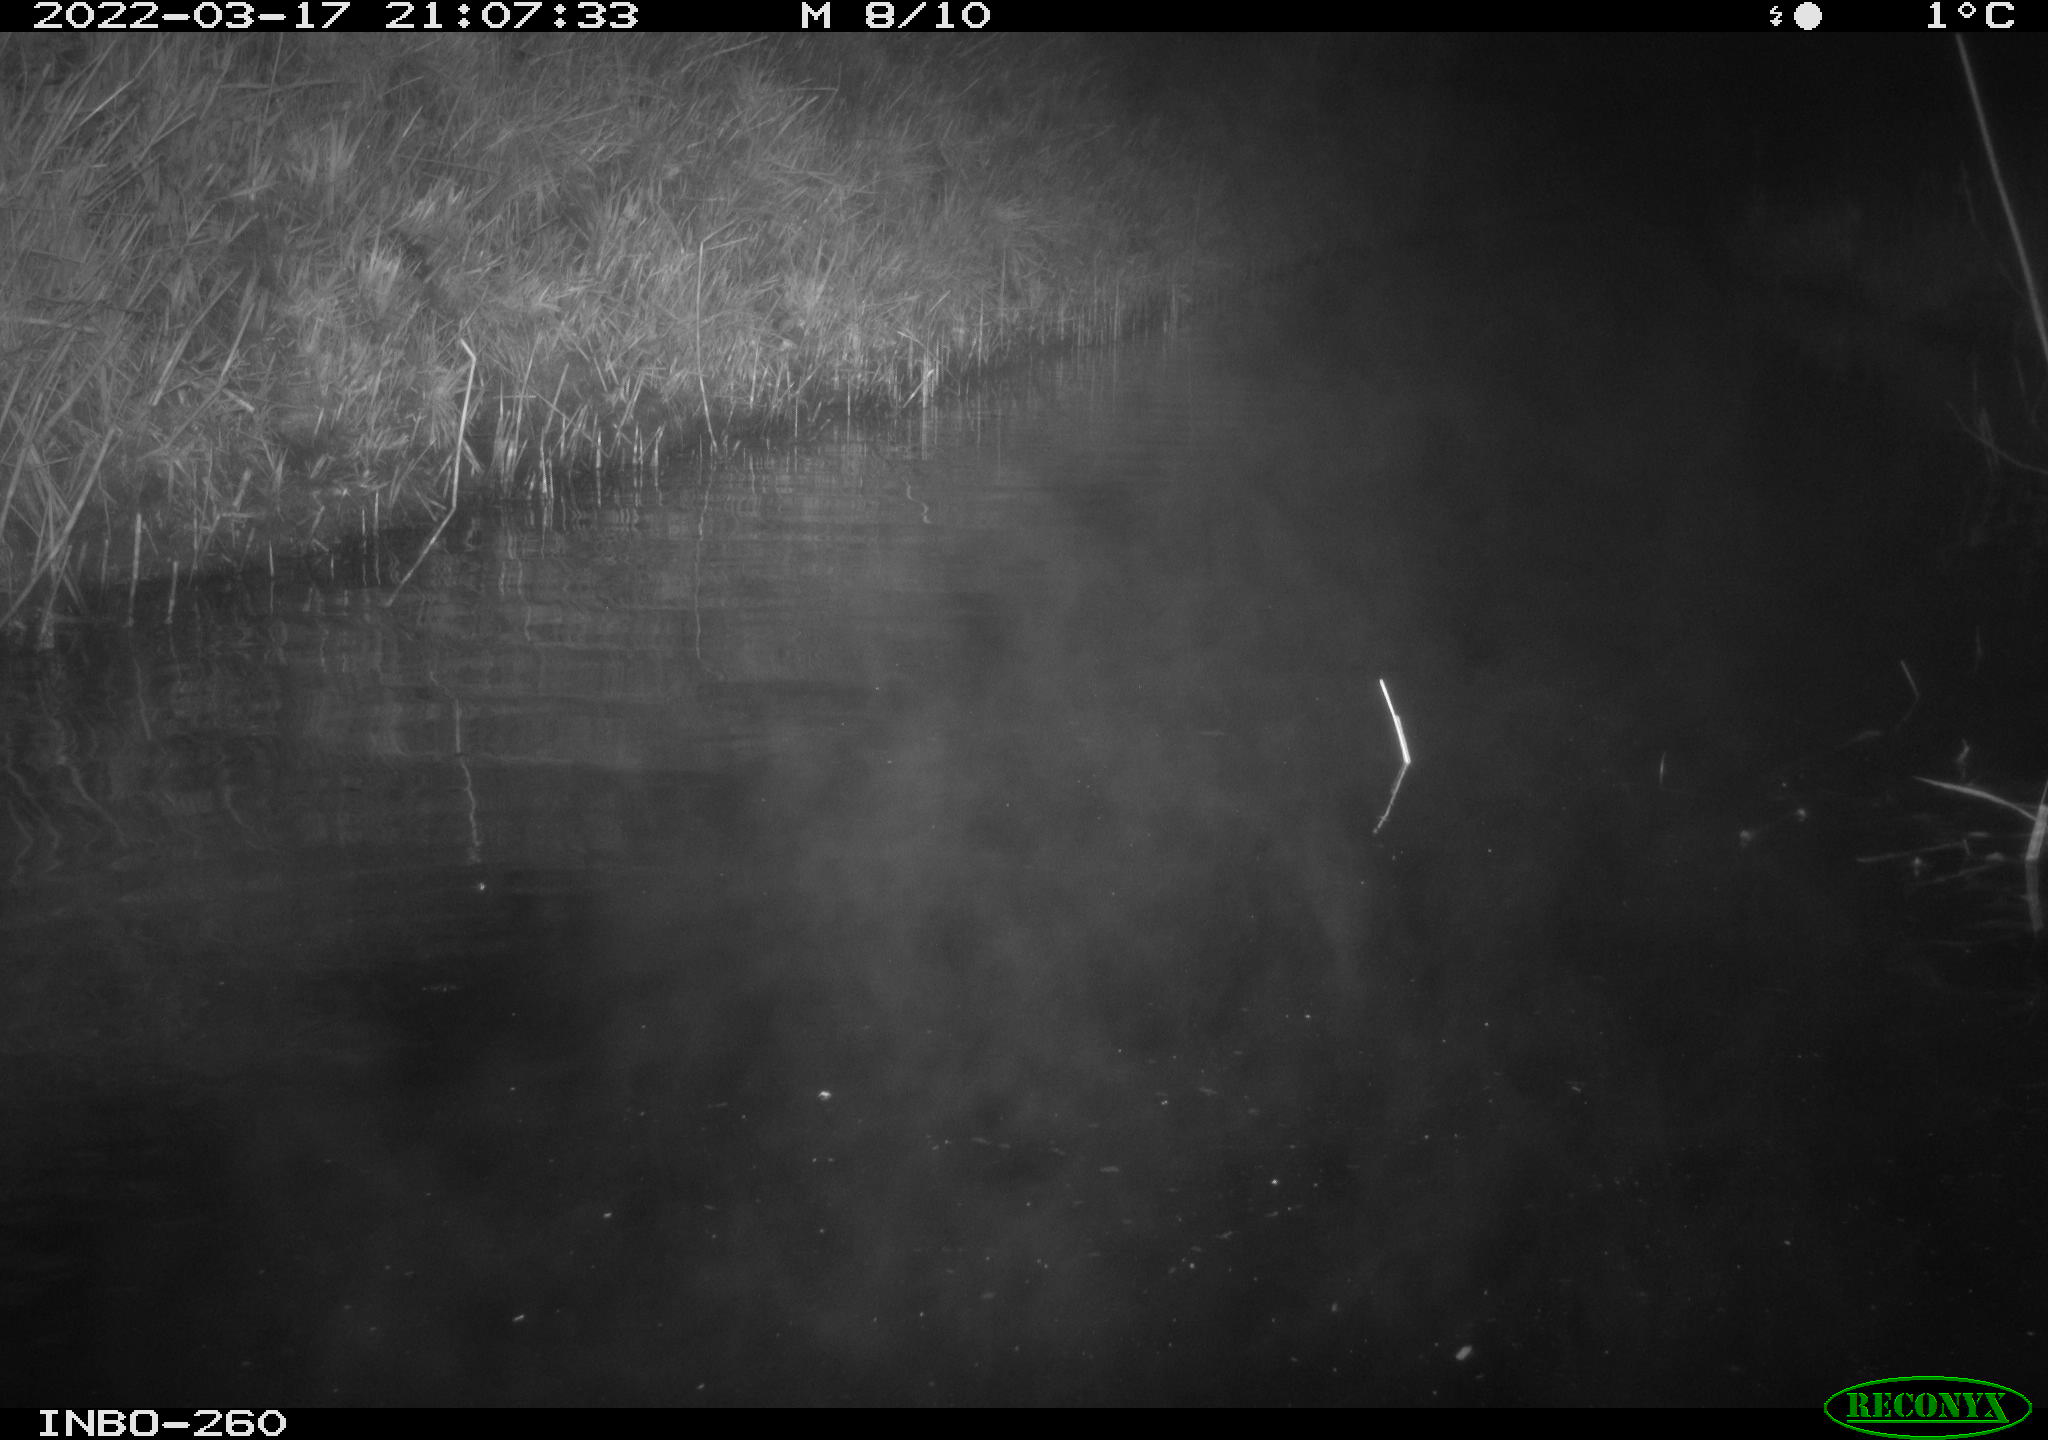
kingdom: Animalia
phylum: Chordata
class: Mammalia
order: Rodentia
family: Cricetidae
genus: Ondatra
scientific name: Ondatra zibethicus
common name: Muskrat
